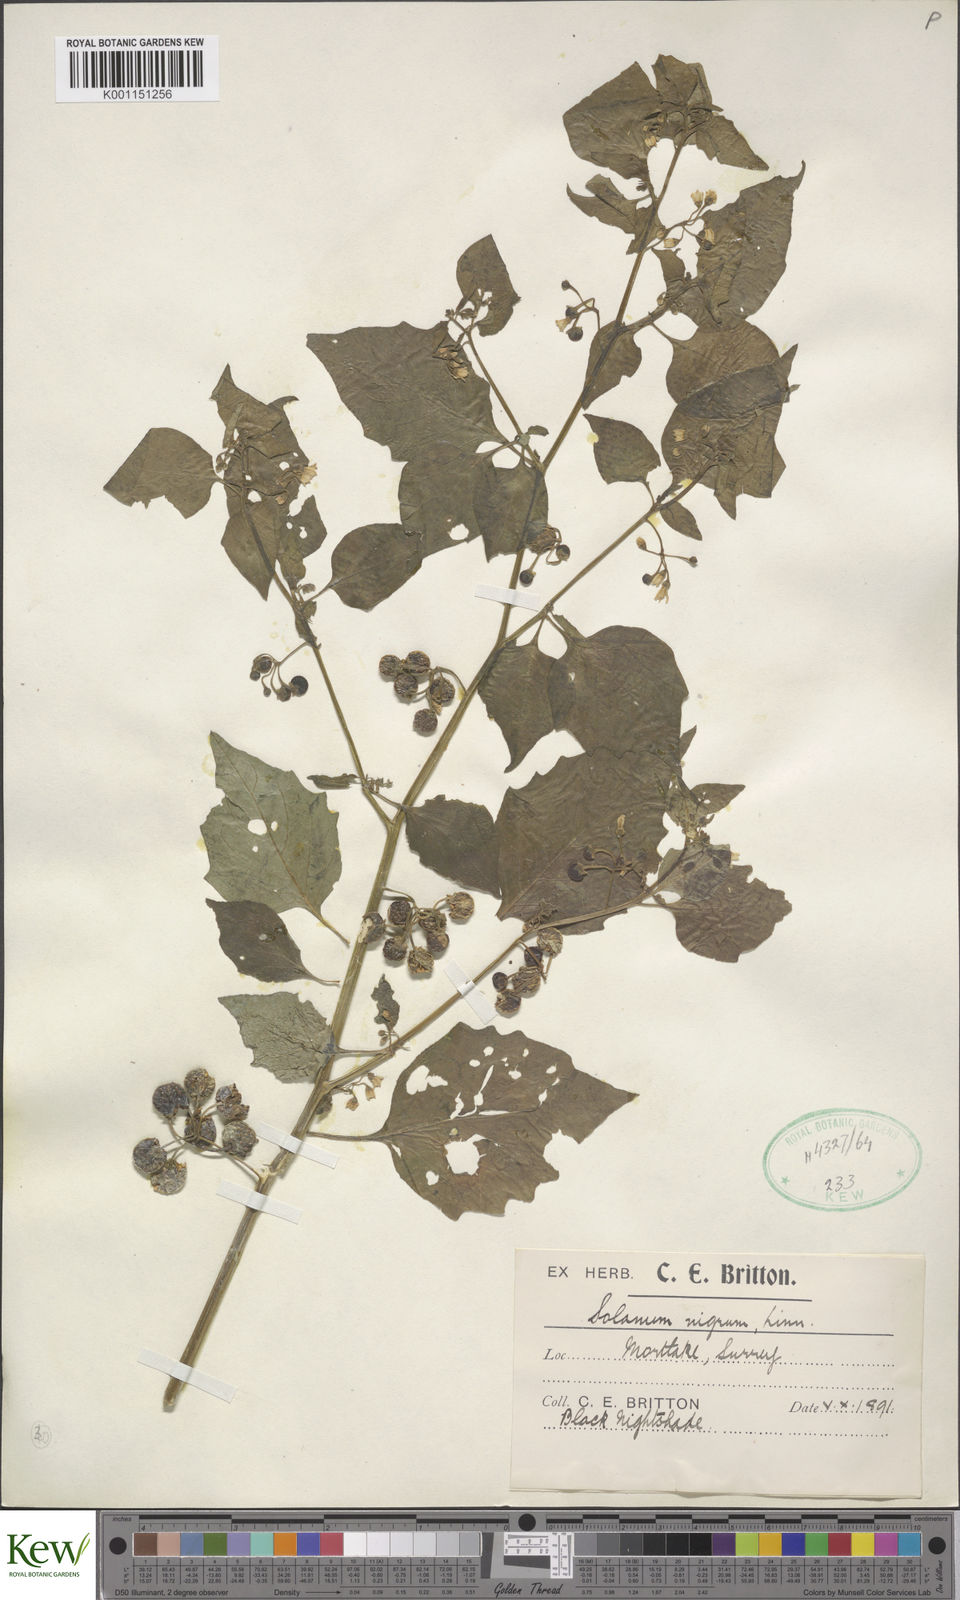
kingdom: Plantae
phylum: Tracheophyta
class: Magnoliopsida
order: Solanales
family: Solanaceae
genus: Solanum
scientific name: Solanum nigrum
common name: Black nightshade
